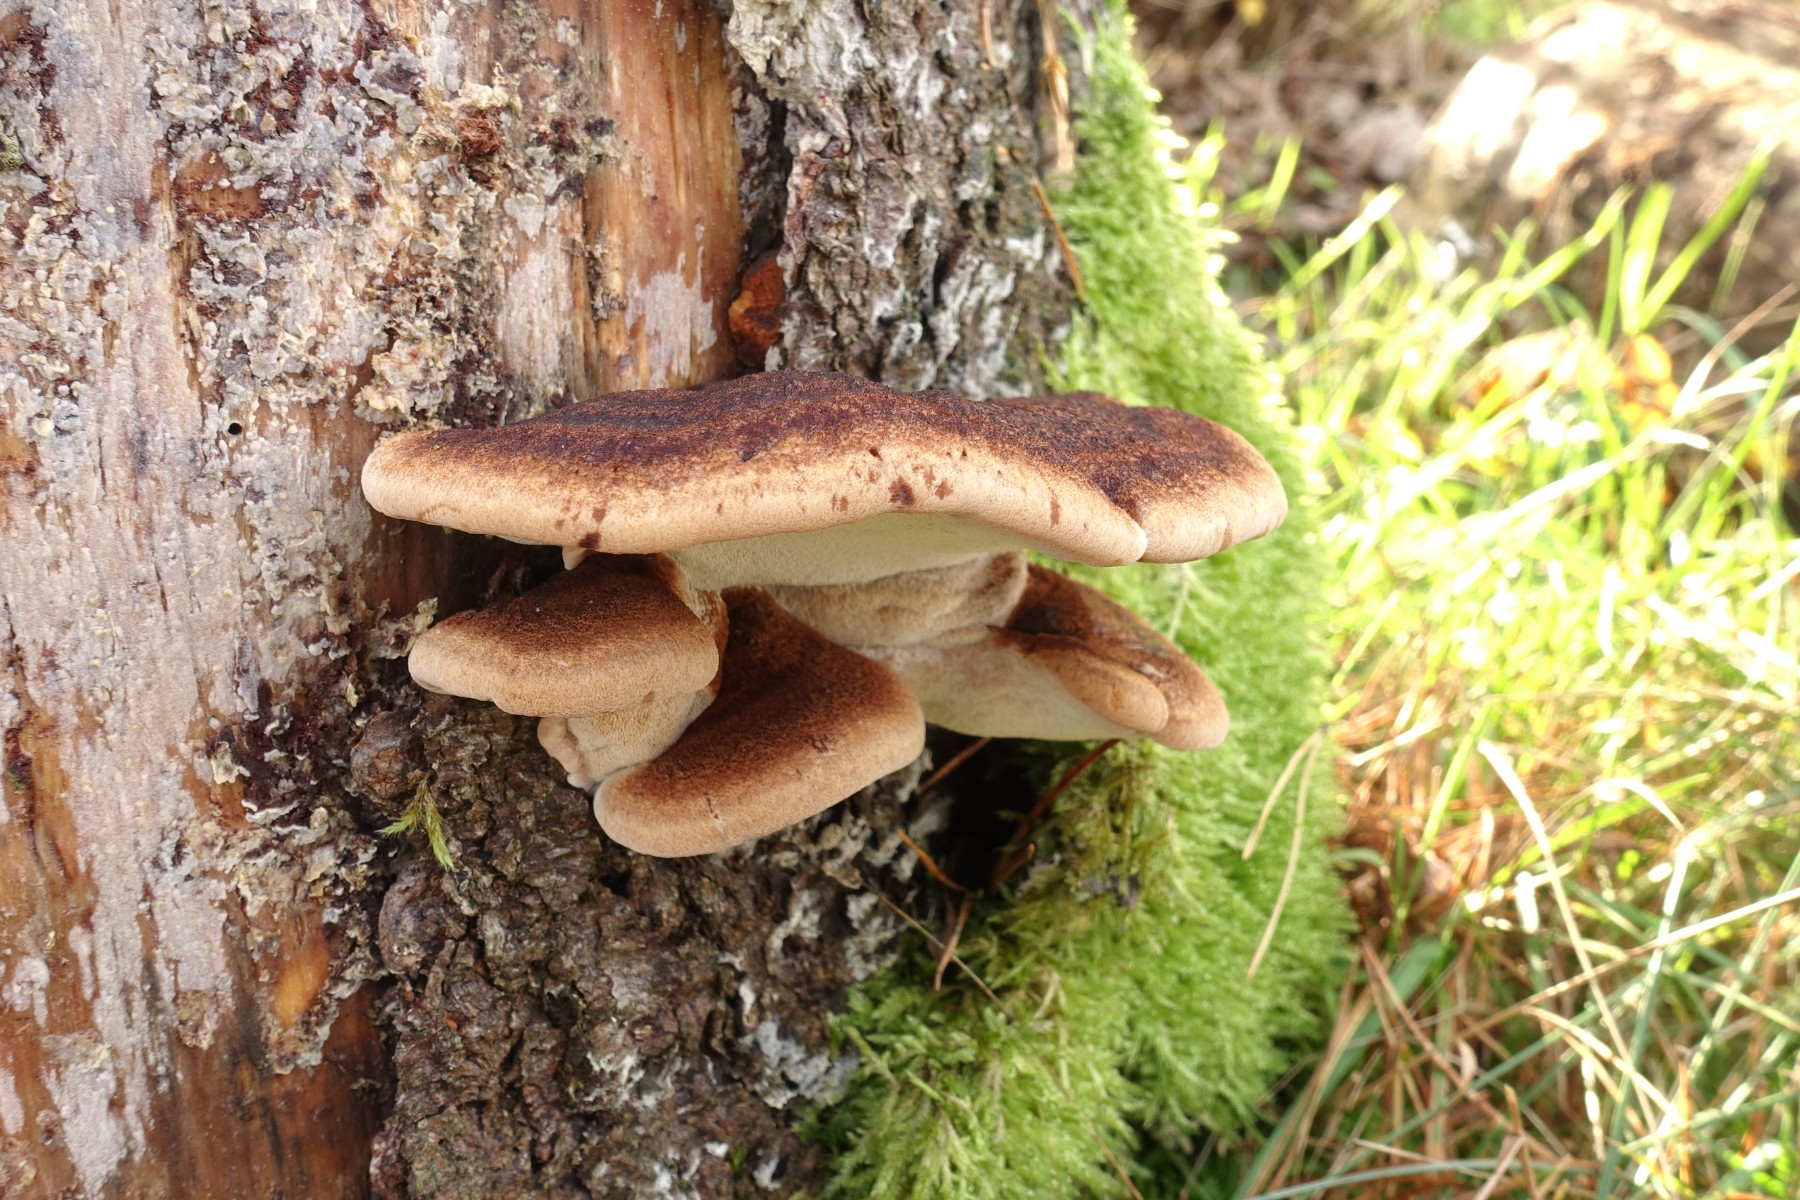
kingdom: Fungi
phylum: Basidiomycota
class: Agaricomycetes
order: Polyporales
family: Ischnodermataceae
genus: Ischnoderma
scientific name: Ischnoderma benzoinum
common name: gran-tjæreporesvamp
